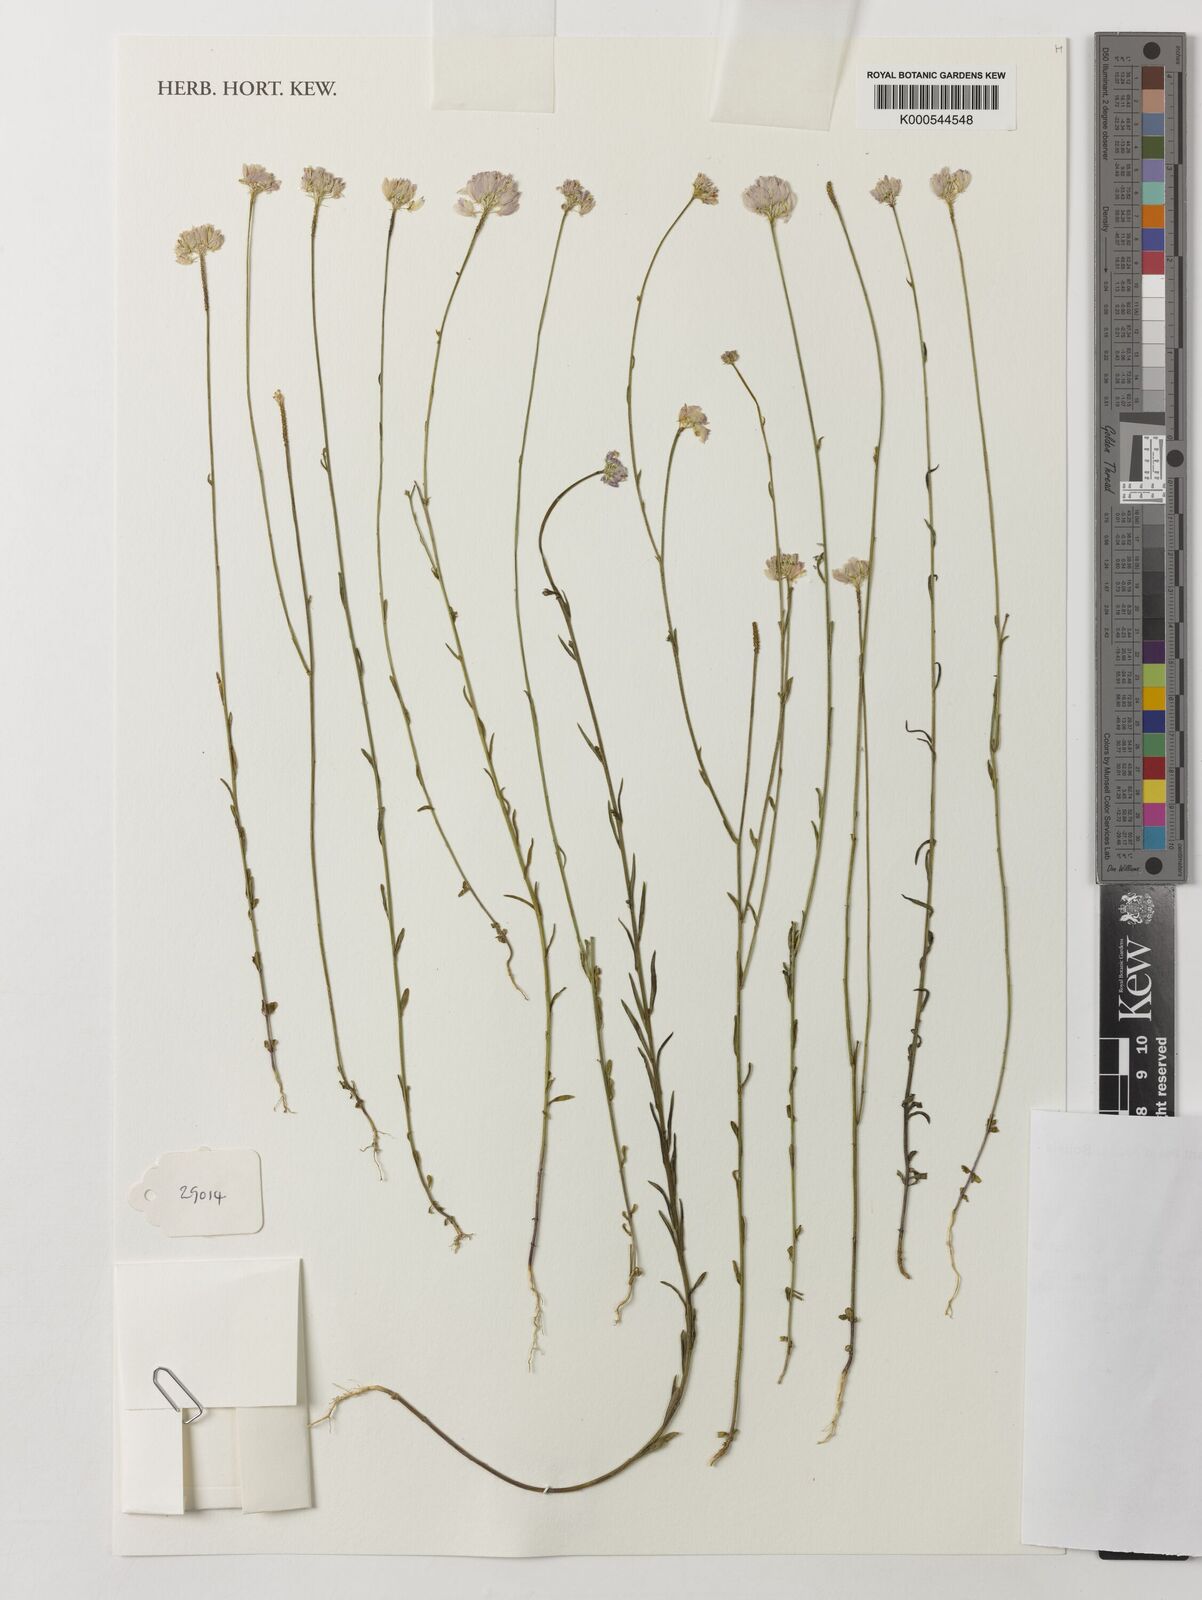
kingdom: Plantae
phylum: Tracheophyta
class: Magnoliopsida
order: Fabales
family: Polygalaceae
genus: Polygala
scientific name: Polygala longicaulis
